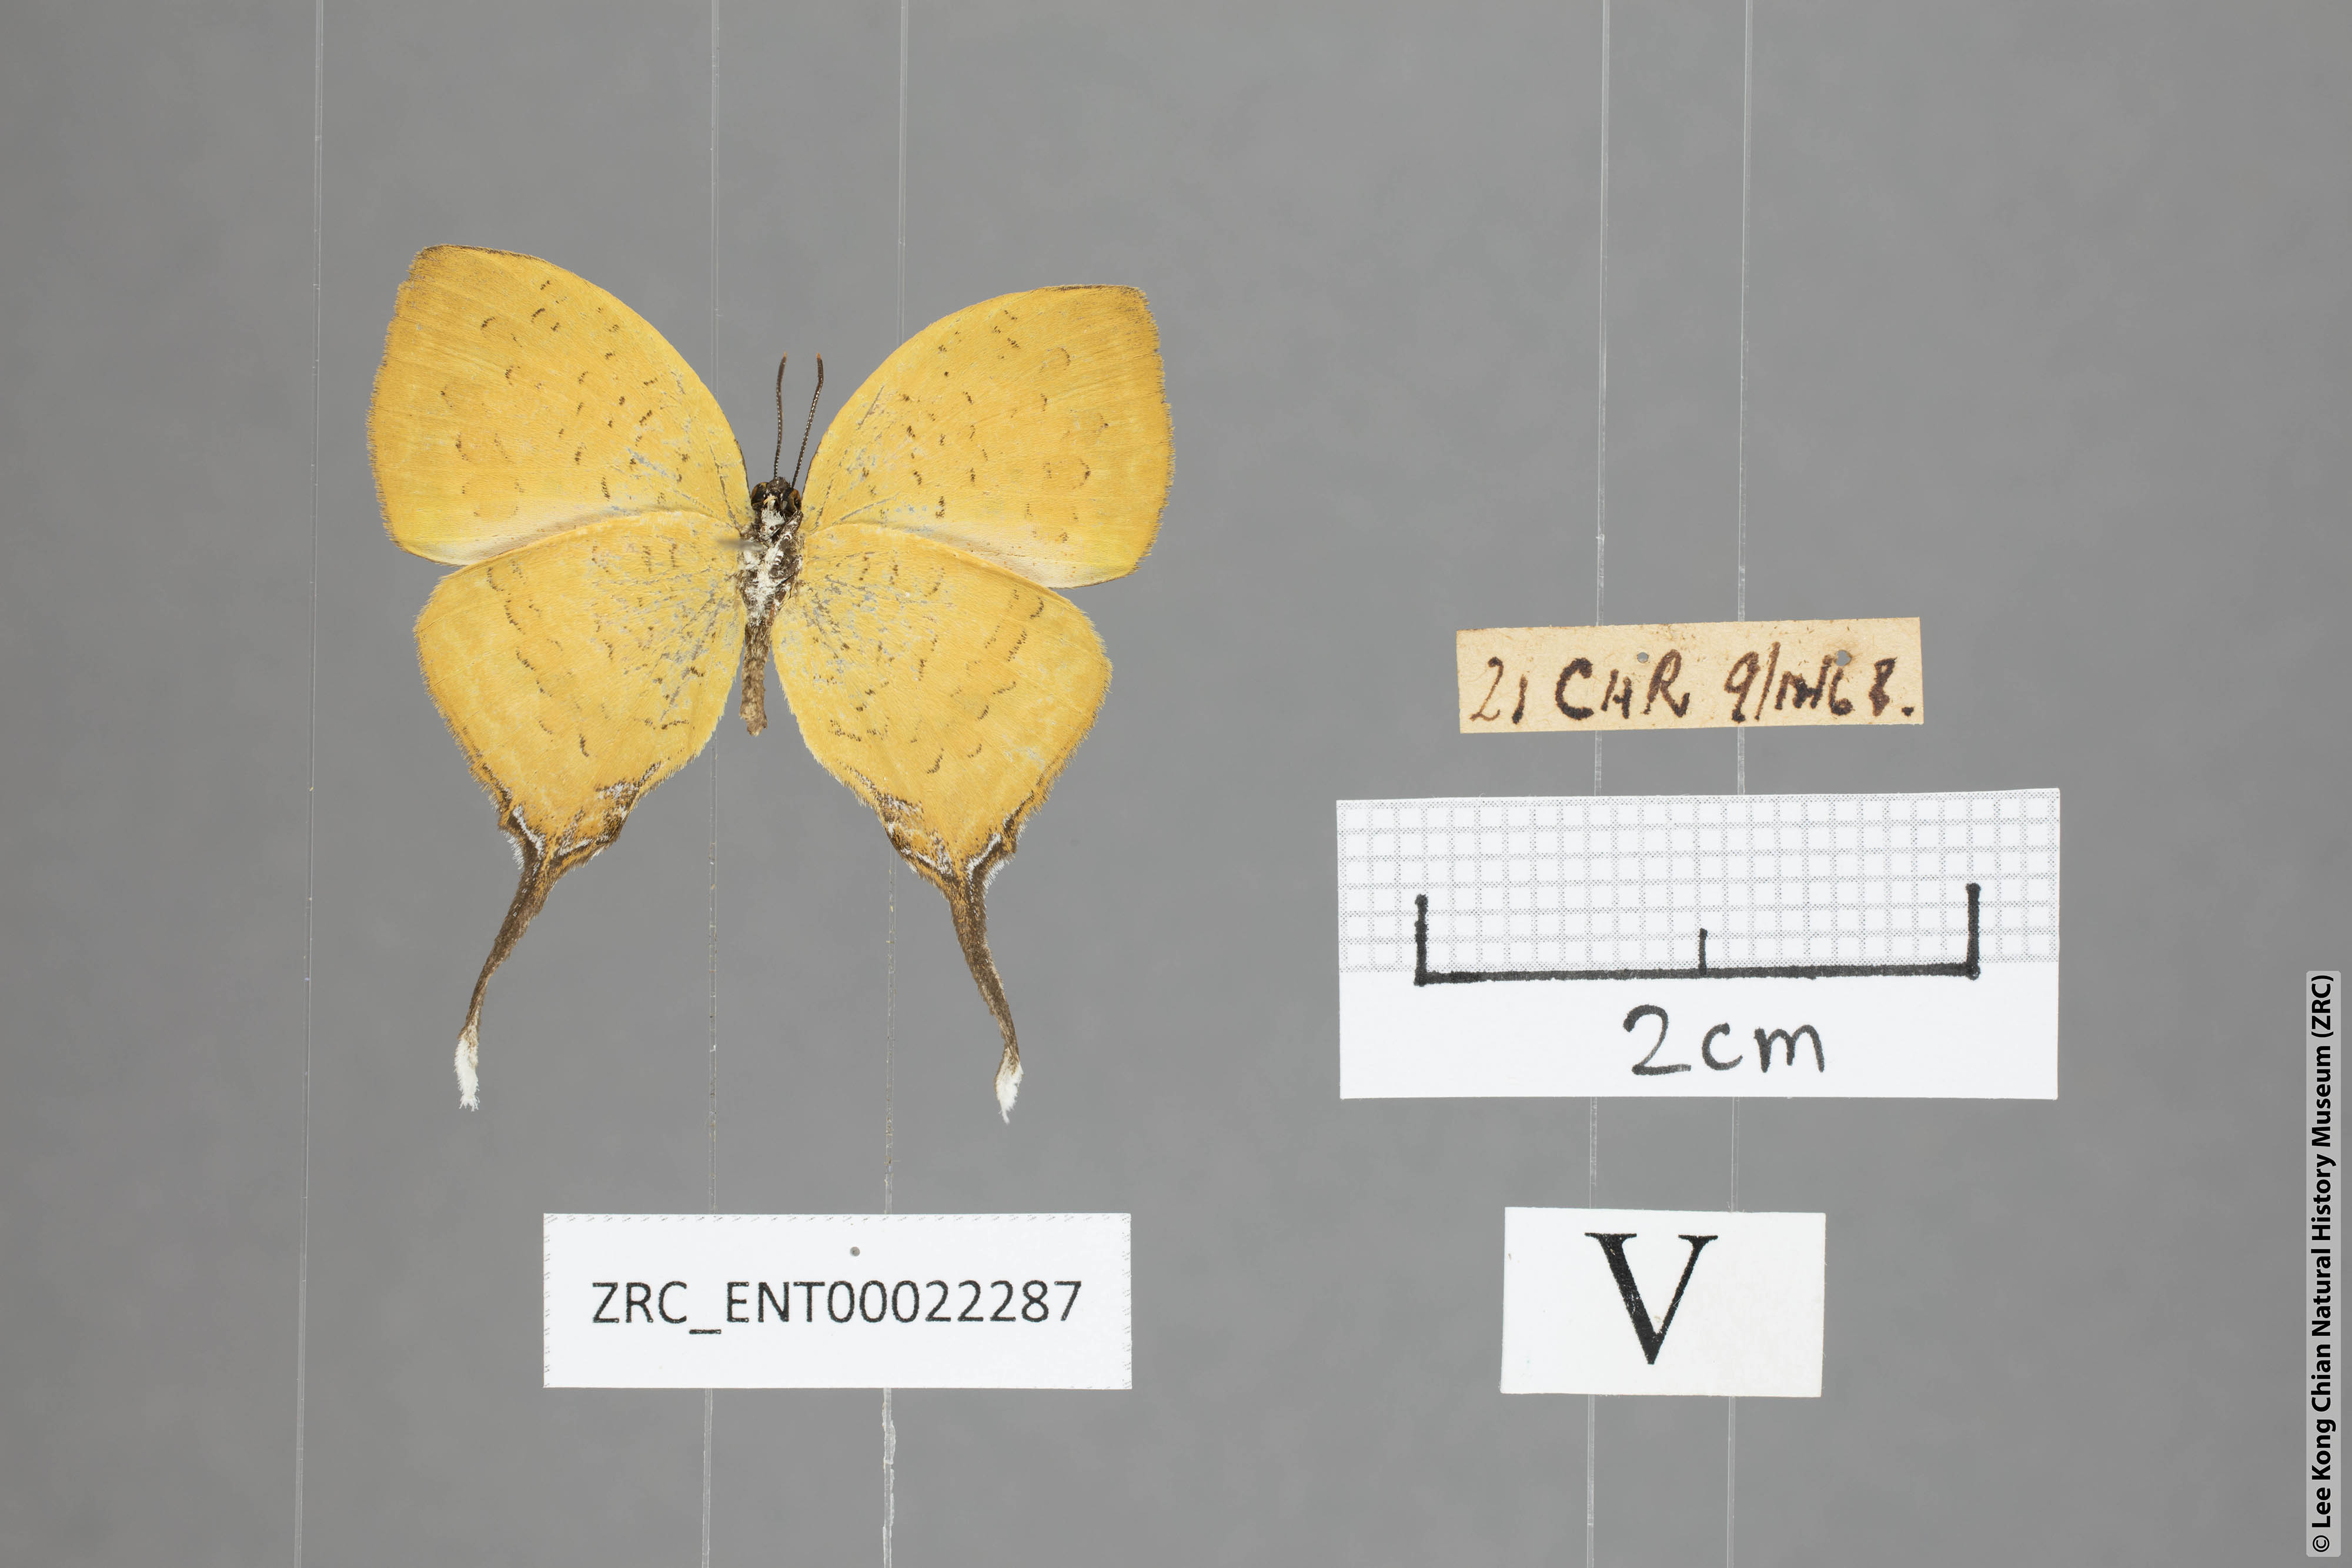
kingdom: Animalia
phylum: Arthropoda
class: Insecta
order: Lepidoptera
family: Lycaenidae
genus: Yasoda
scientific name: Yasoda pita
